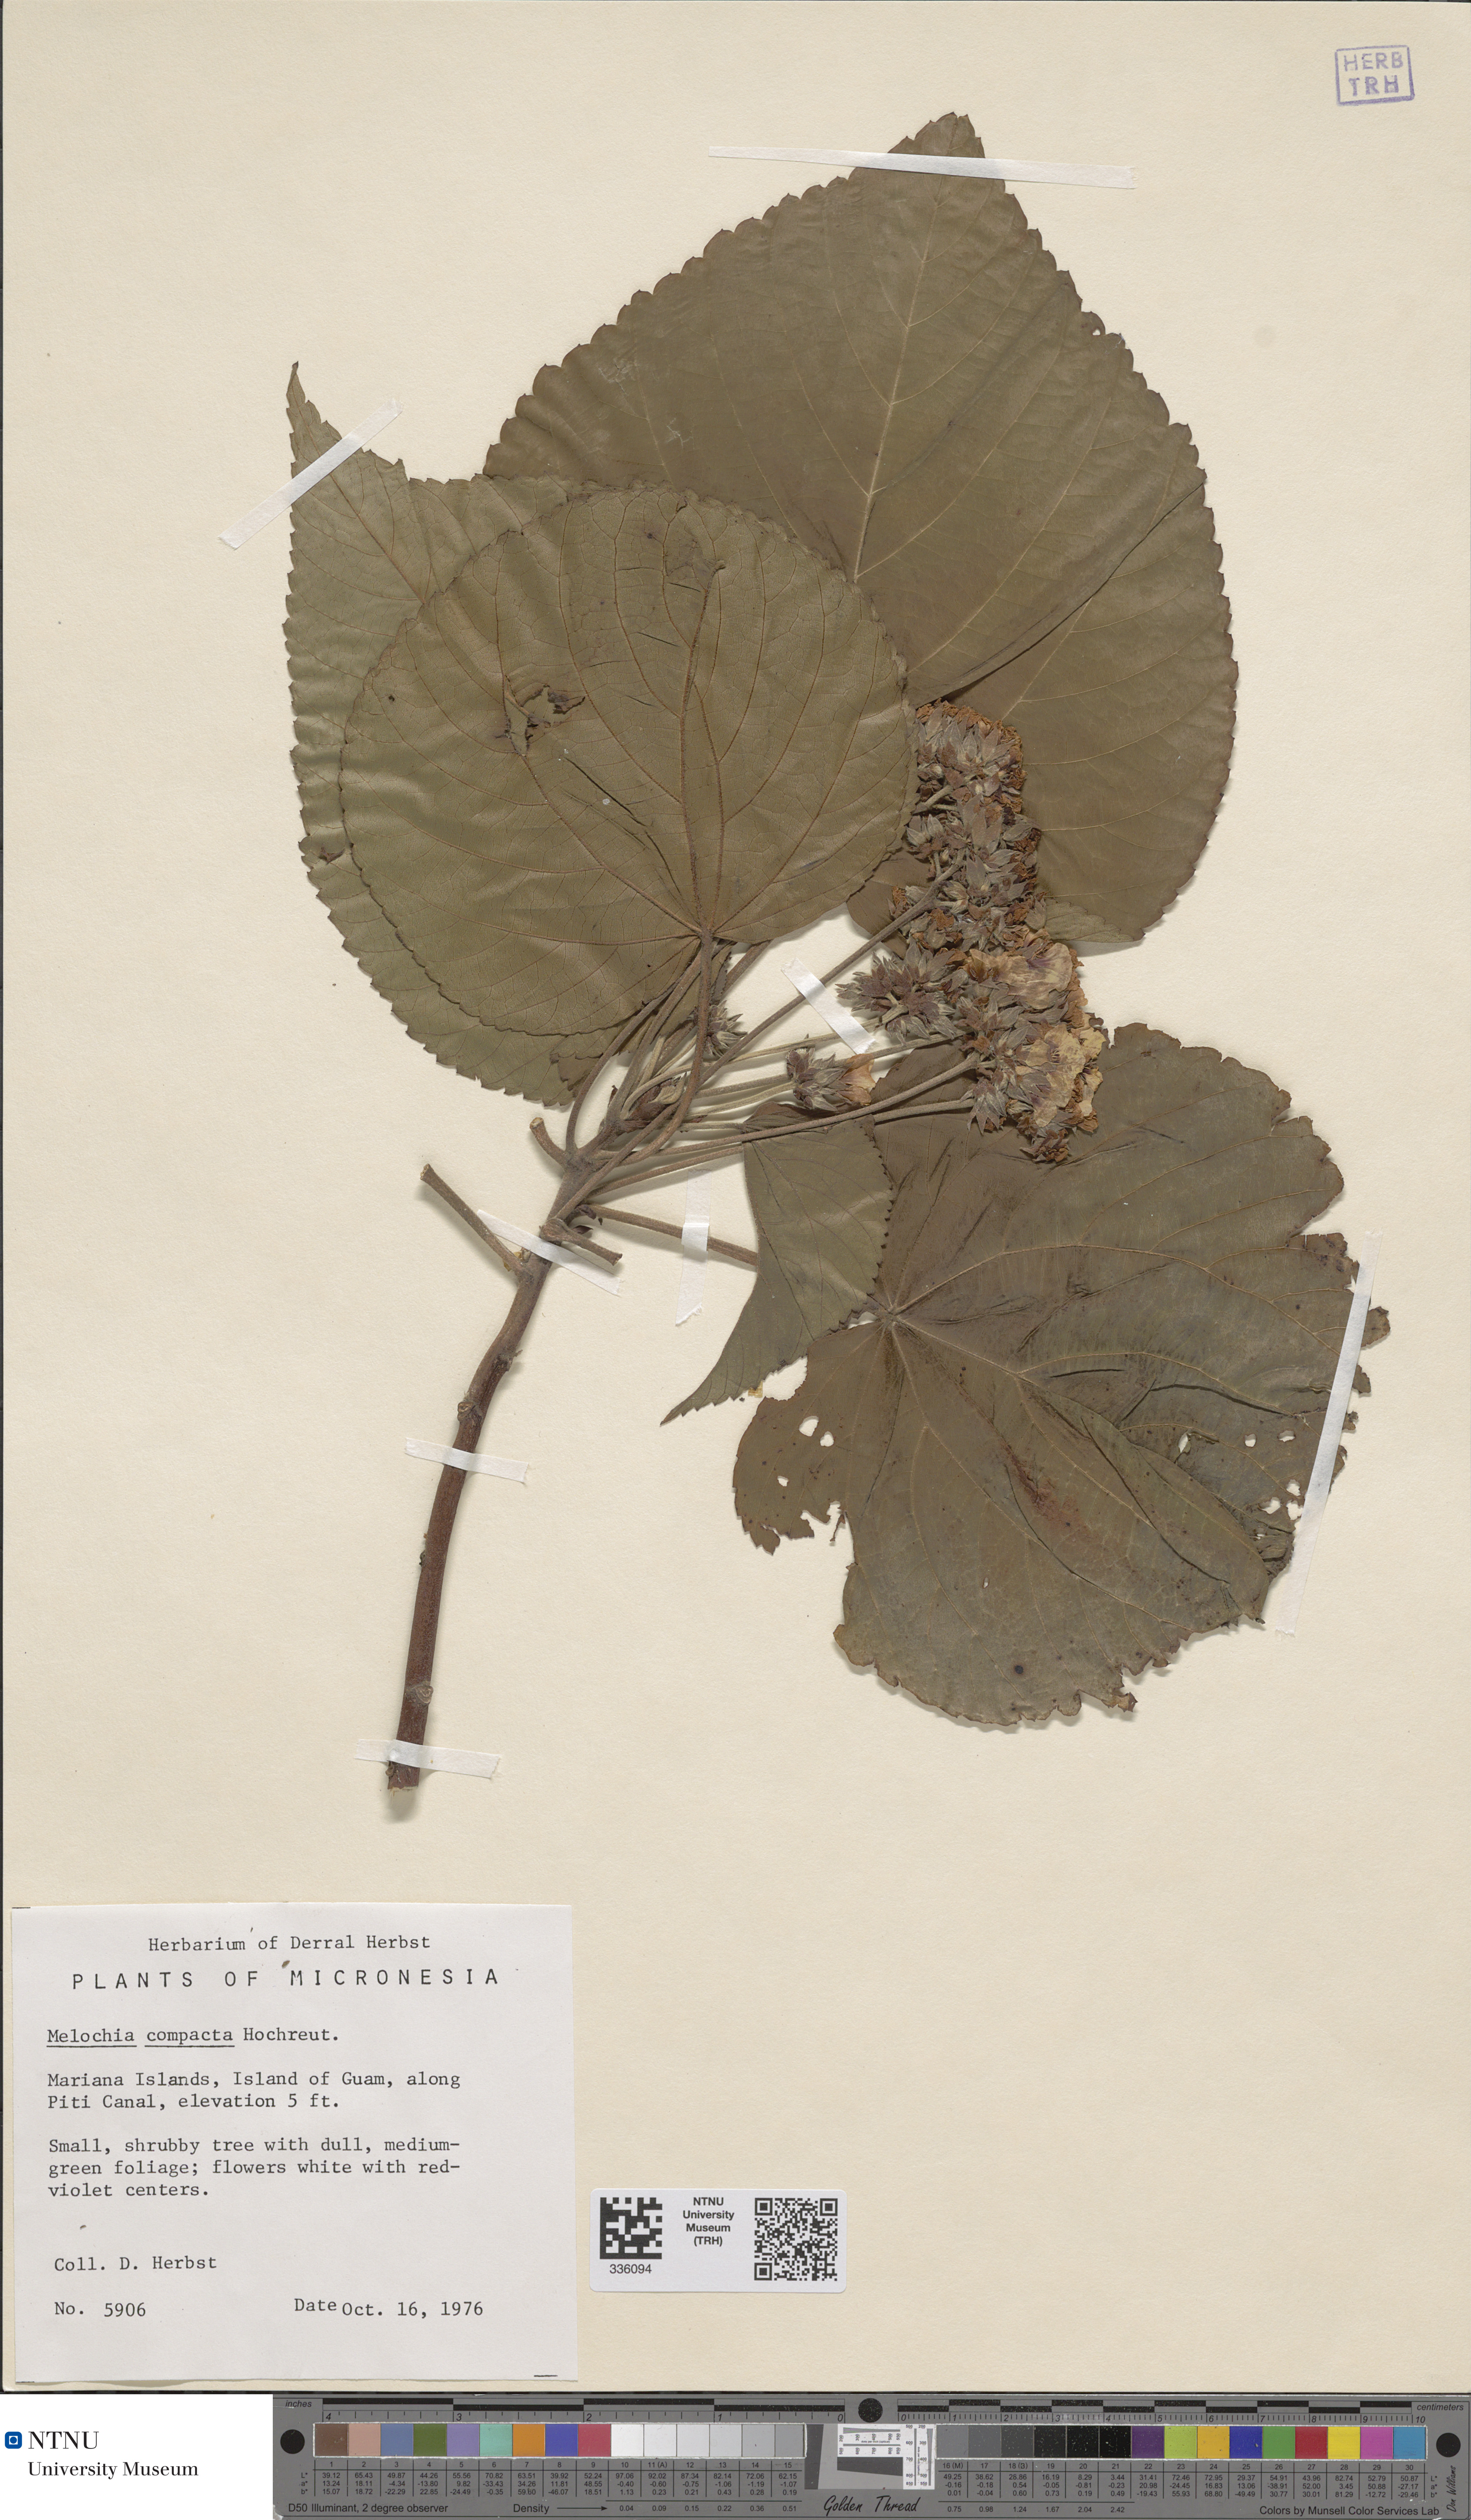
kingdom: Plantae
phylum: Tracheophyta
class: Magnoliopsida
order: Malvales
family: Malvaceae
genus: Melochia
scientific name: Melochia villosissima
